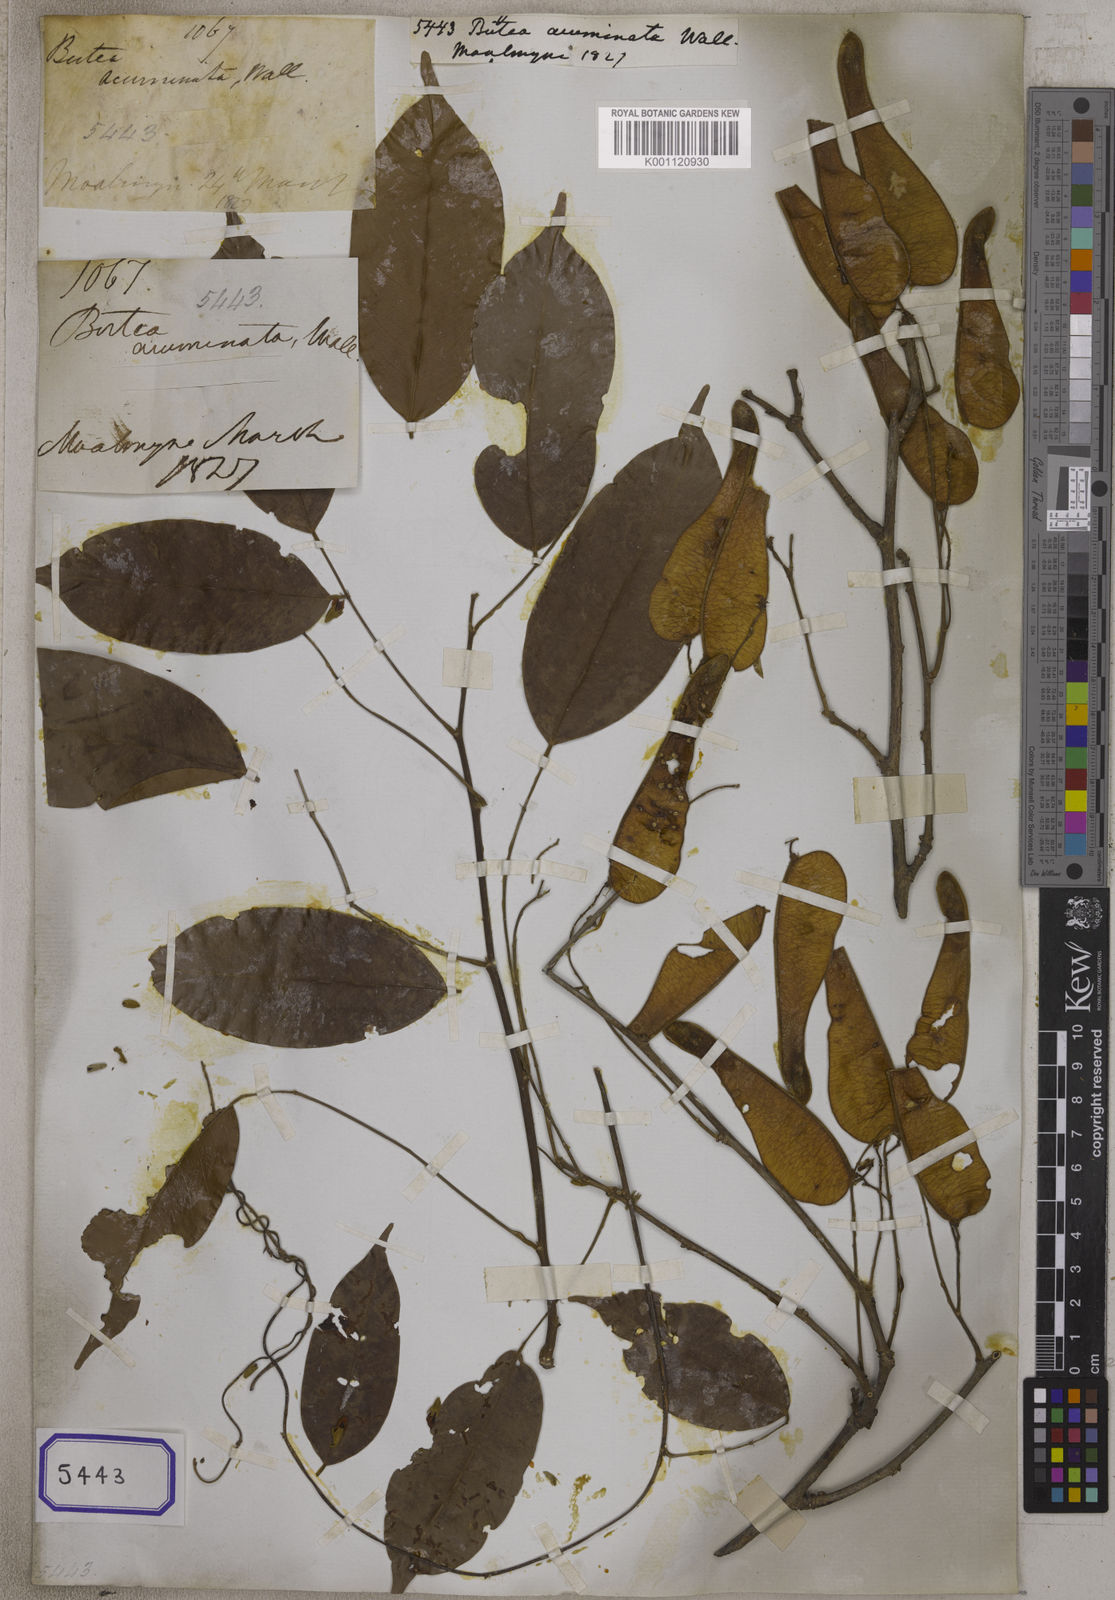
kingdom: Plantae
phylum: Tracheophyta
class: Magnoliopsida
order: Fabales
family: Fabaceae
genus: Butea
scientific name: Butea
